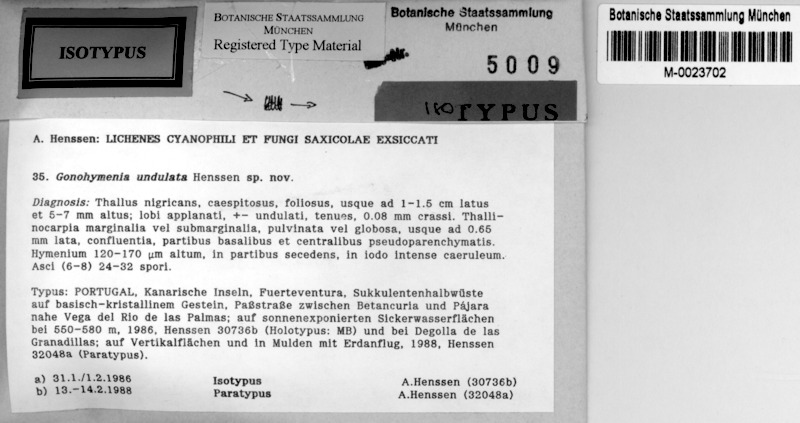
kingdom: Fungi
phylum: Ascomycota
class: Lichinomycetes
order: Lichinales
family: Lichinaceae
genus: Lichinella
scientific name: Lichinella undulata
